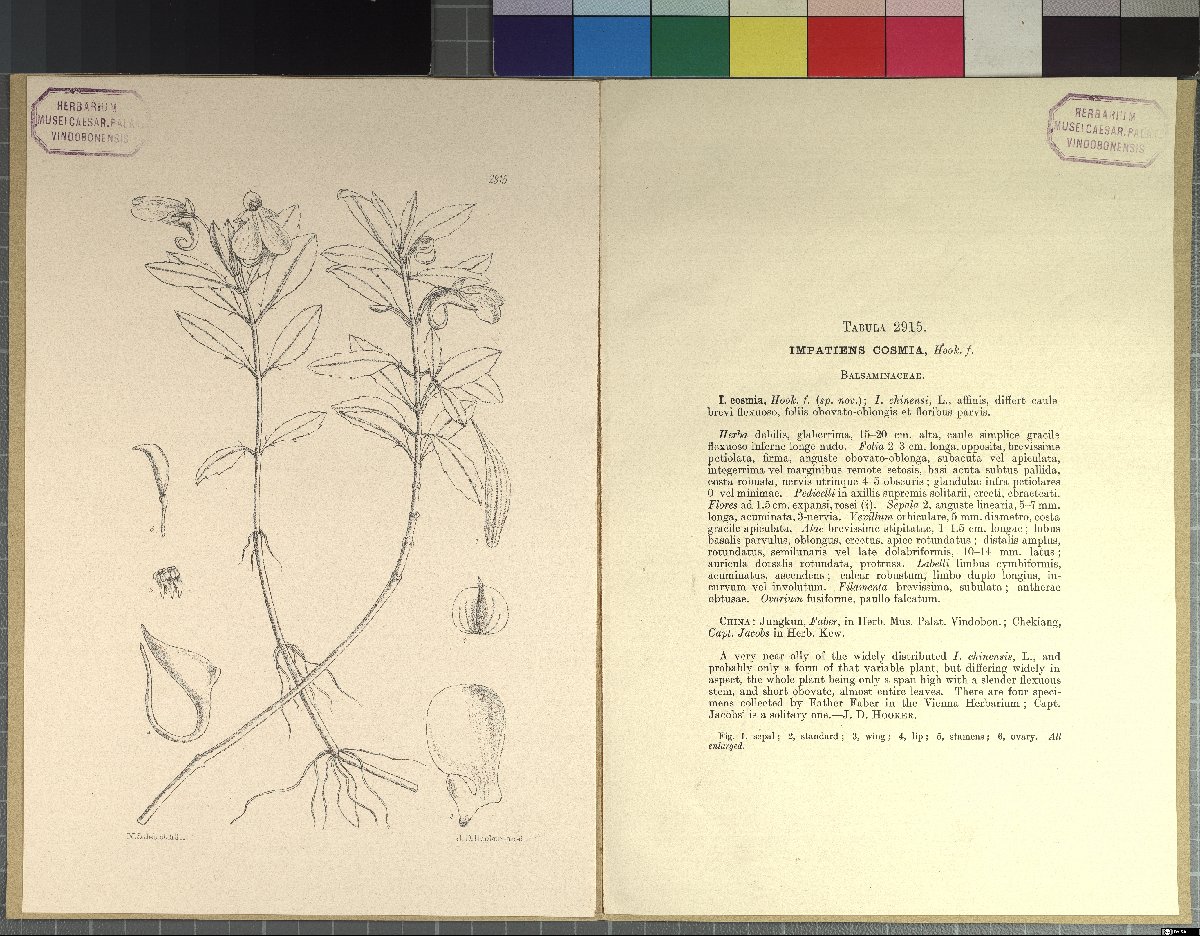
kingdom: Plantae
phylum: Tracheophyta
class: Magnoliopsida
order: Ericales
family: Balsaminaceae
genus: Impatiens
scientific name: Impatiens chinensis
